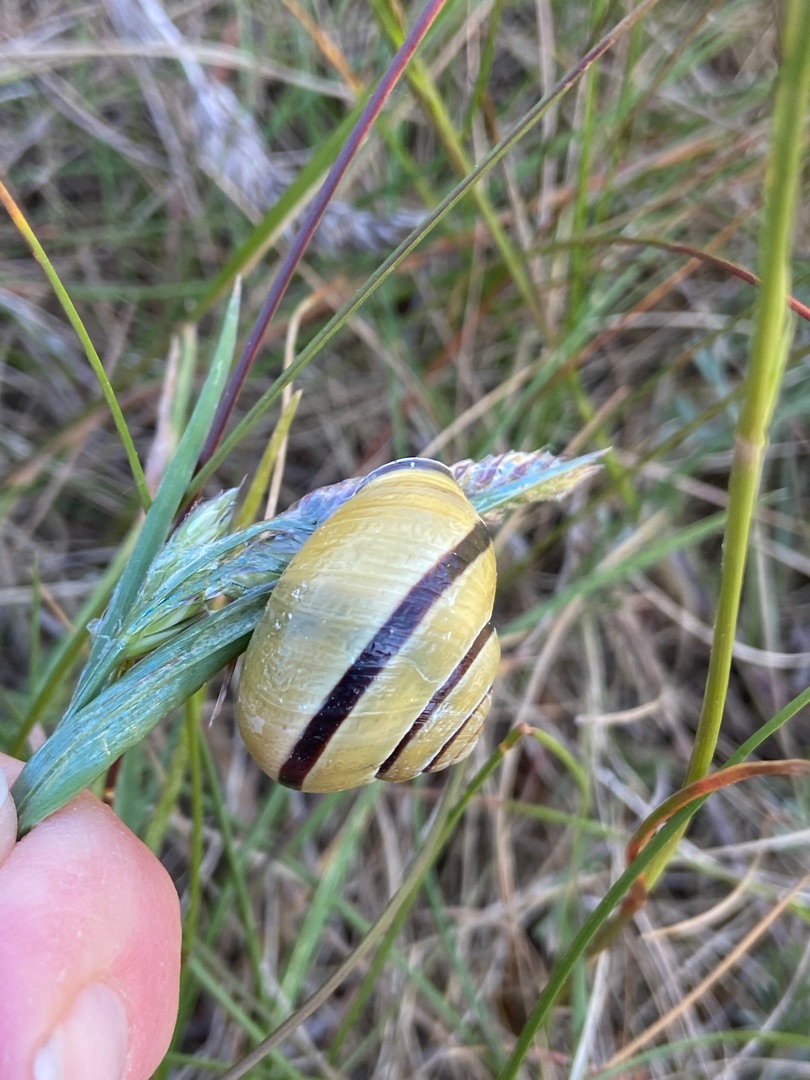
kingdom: Animalia
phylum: Mollusca
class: Gastropoda
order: Stylommatophora
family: Helicidae
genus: Cepaea
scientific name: Cepaea nemoralis
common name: Lundsnegl
